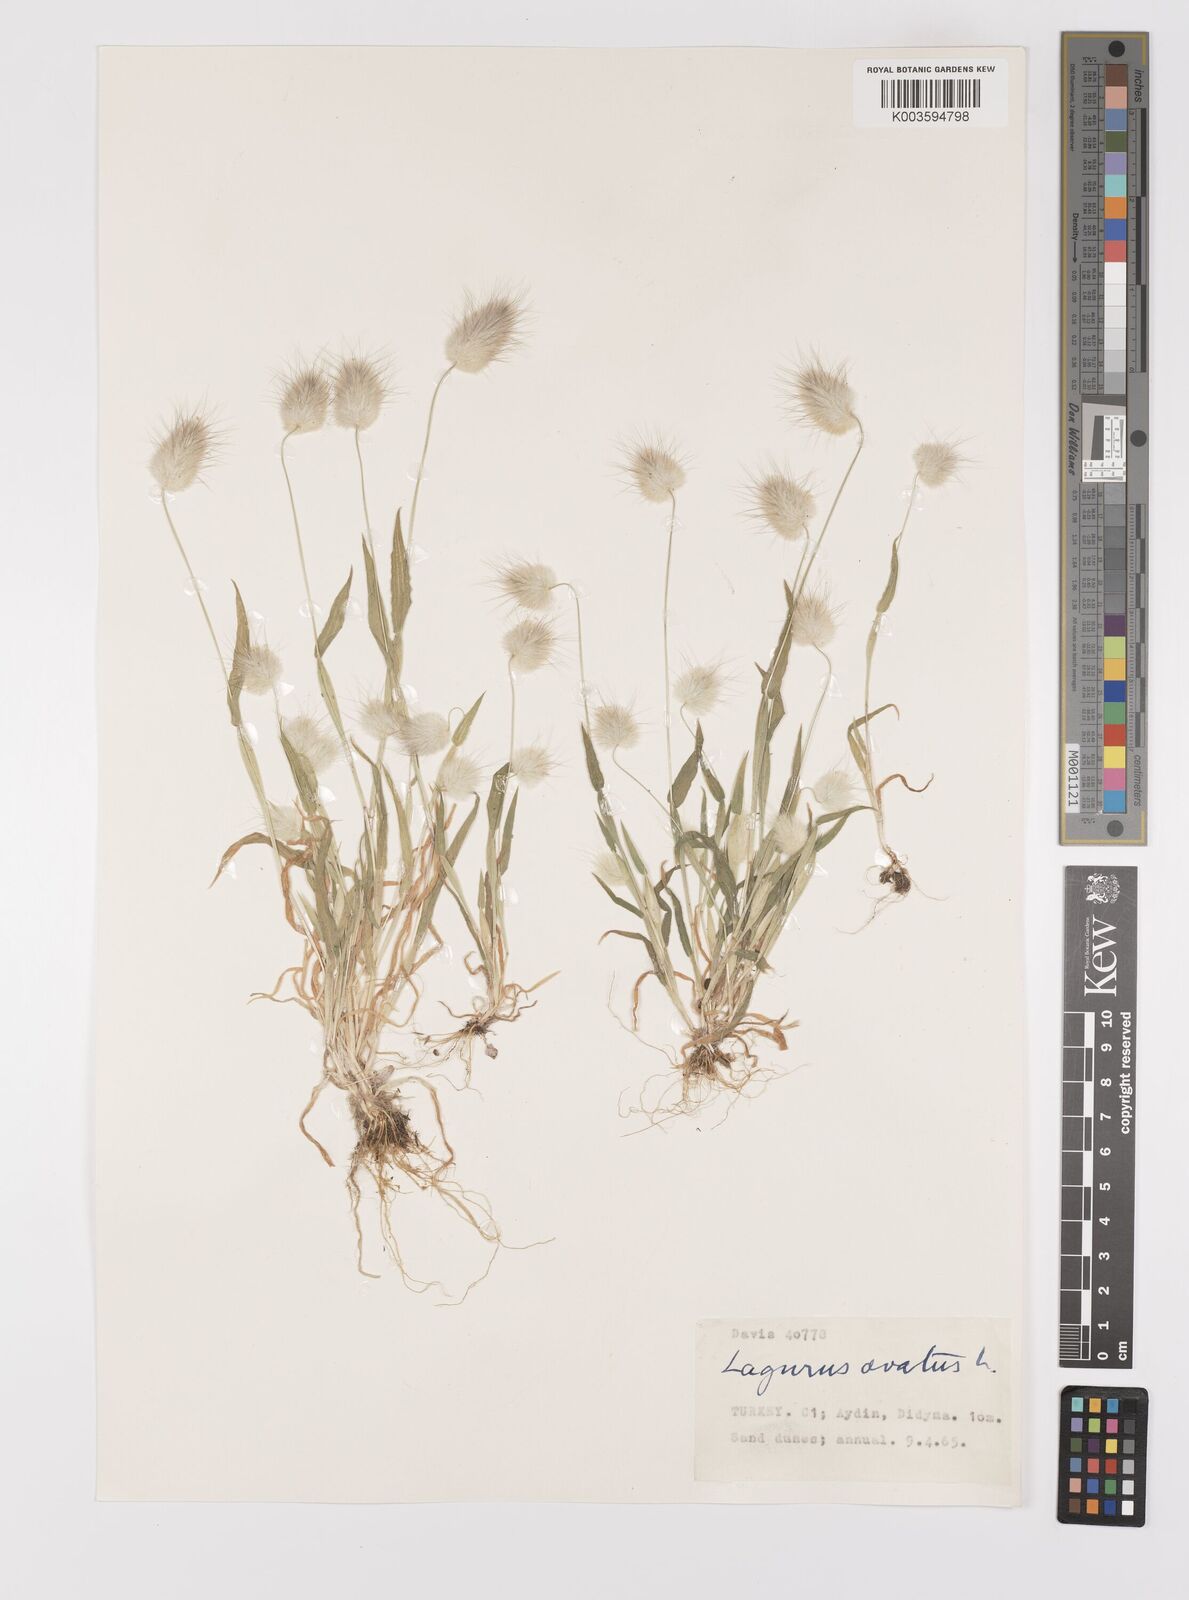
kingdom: Plantae
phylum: Tracheophyta
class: Liliopsida
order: Poales
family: Poaceae
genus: Lagurus
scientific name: Lagurus ovatus
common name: Hare's-tail
